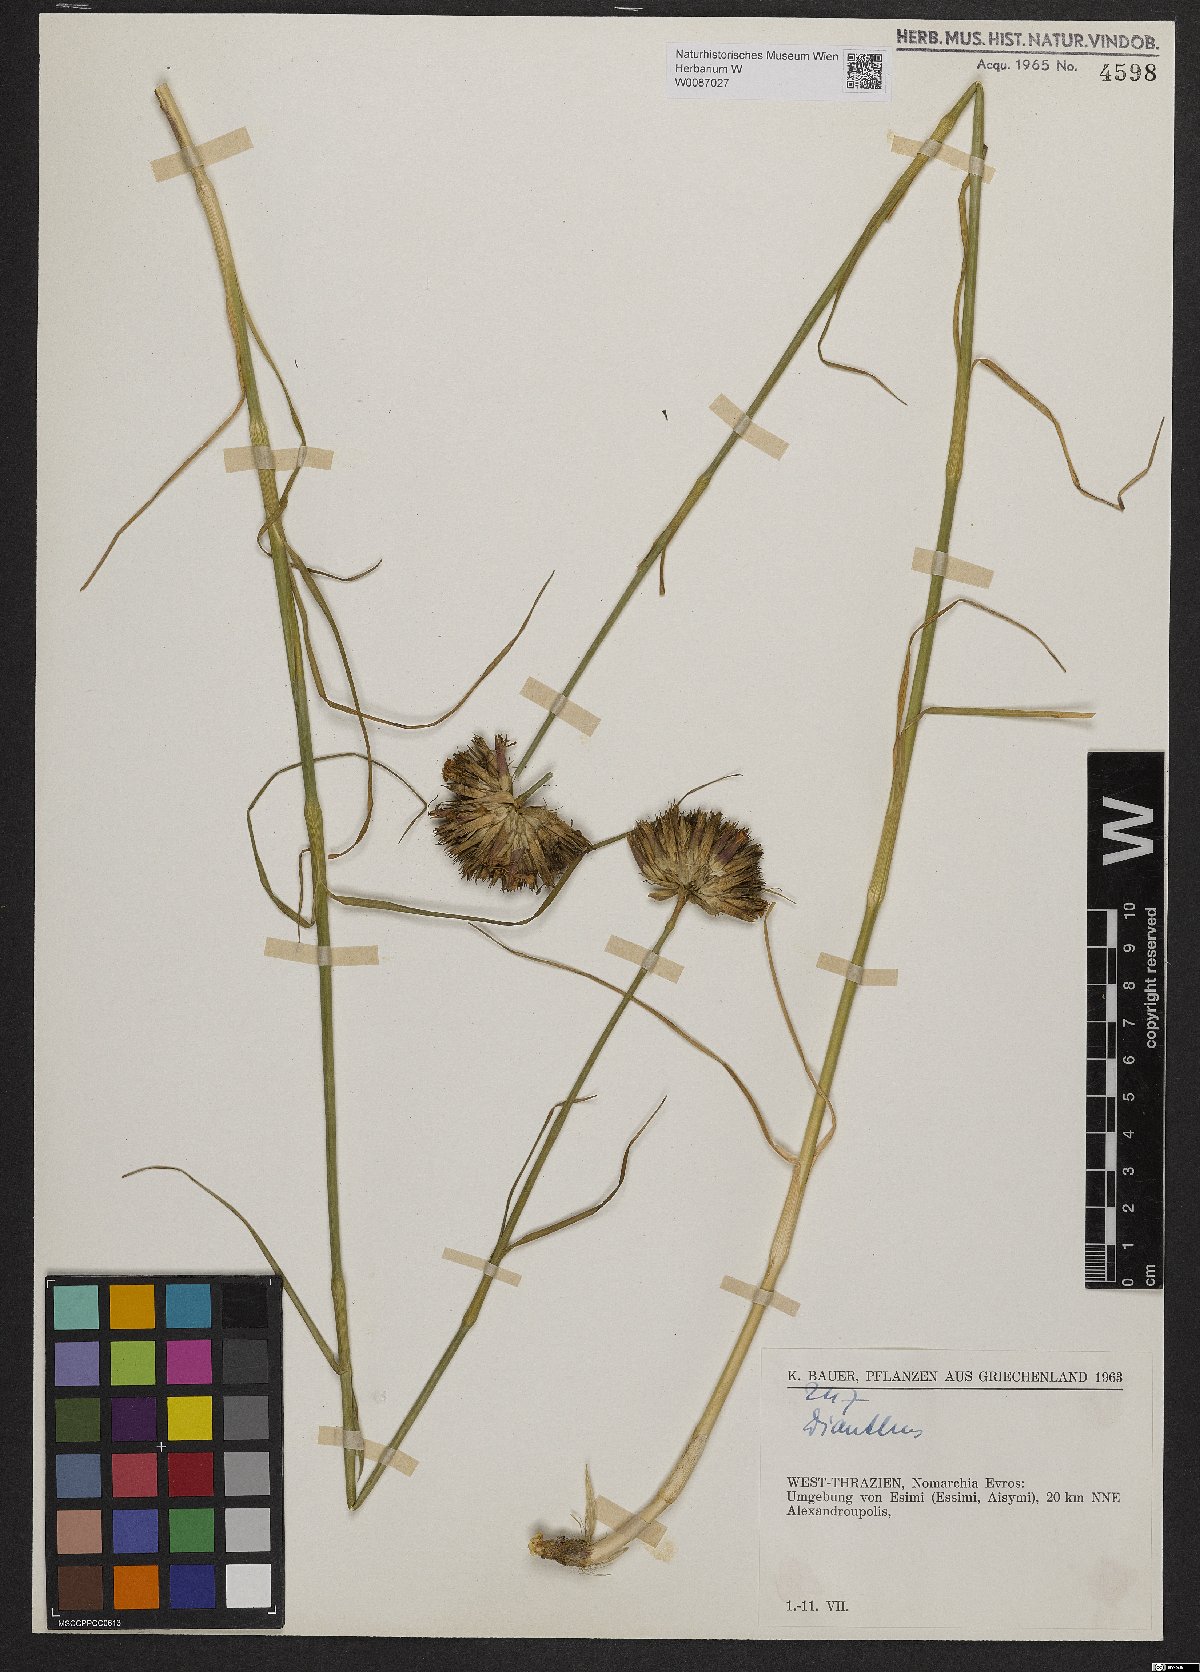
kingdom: Plantae
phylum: Tracheophyta
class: Magnoliopsida
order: Caryophyllales
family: Caryophyllaceae
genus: Dianthus
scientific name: Dianthus cruentus
